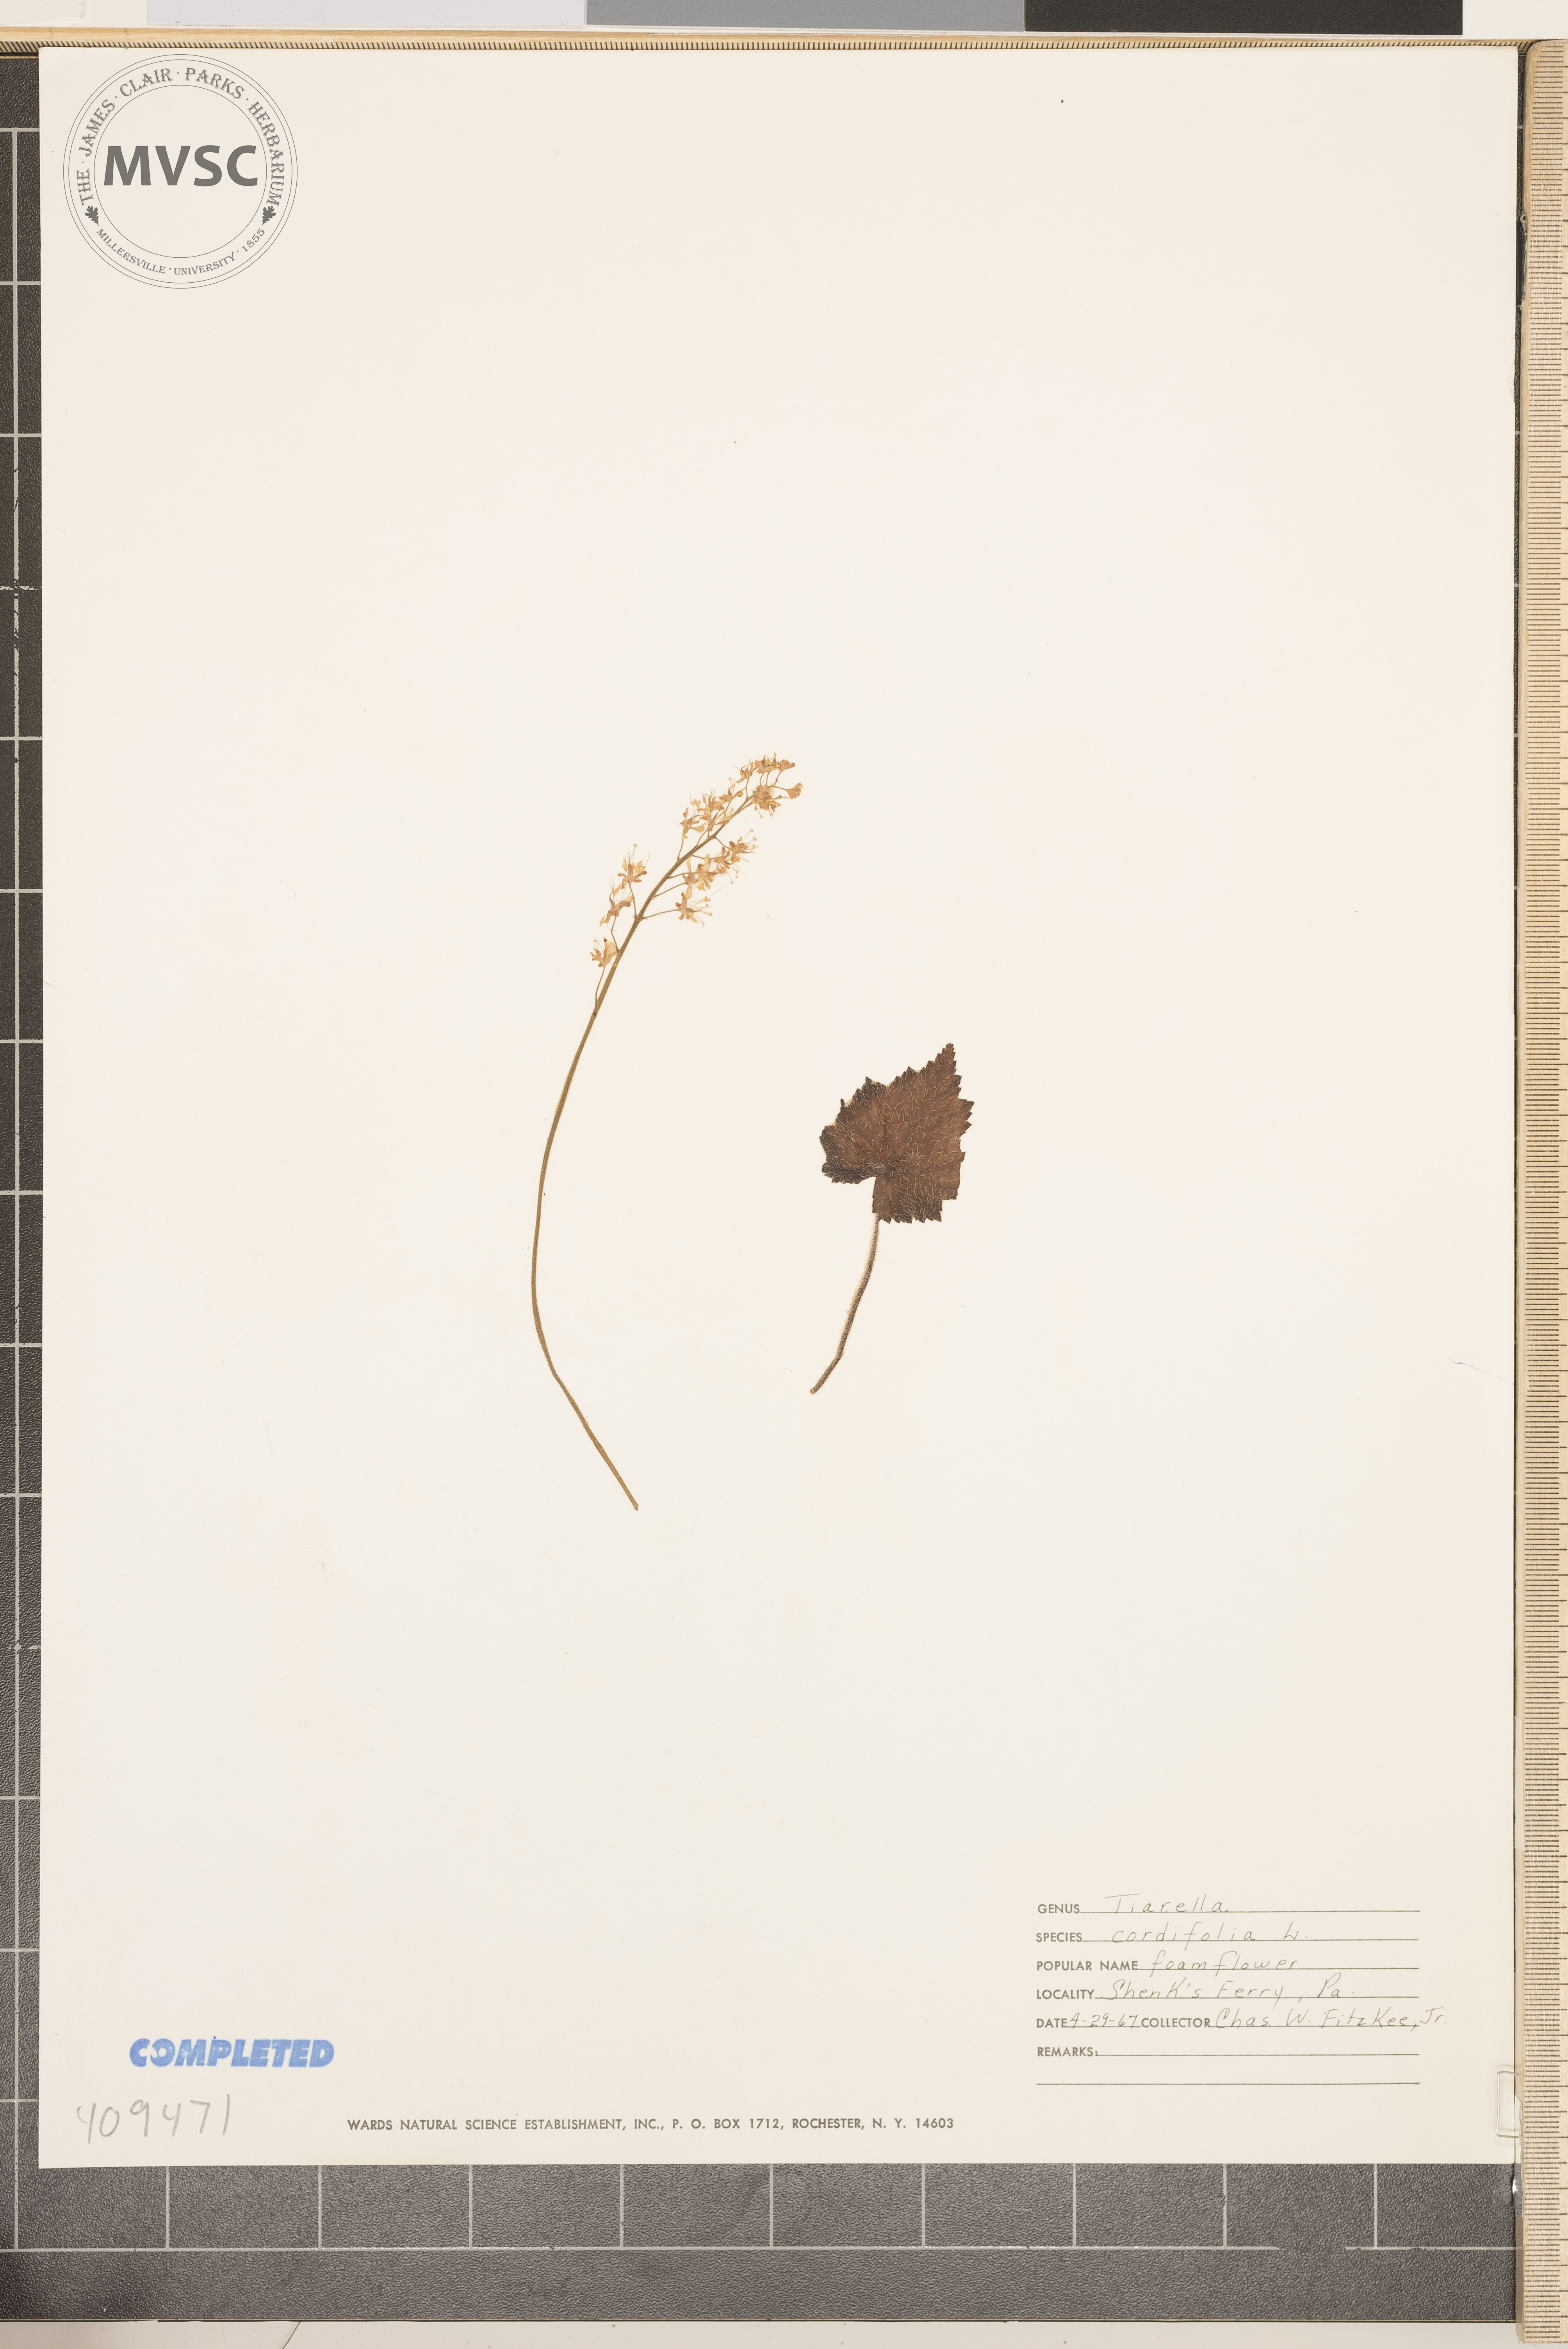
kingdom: Plantae
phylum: Tracheophyta
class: Magnoliopsida
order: Saxifragales
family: Saxifragaceae
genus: Tiarella
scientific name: Tiarella cordifolia
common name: foamflower
